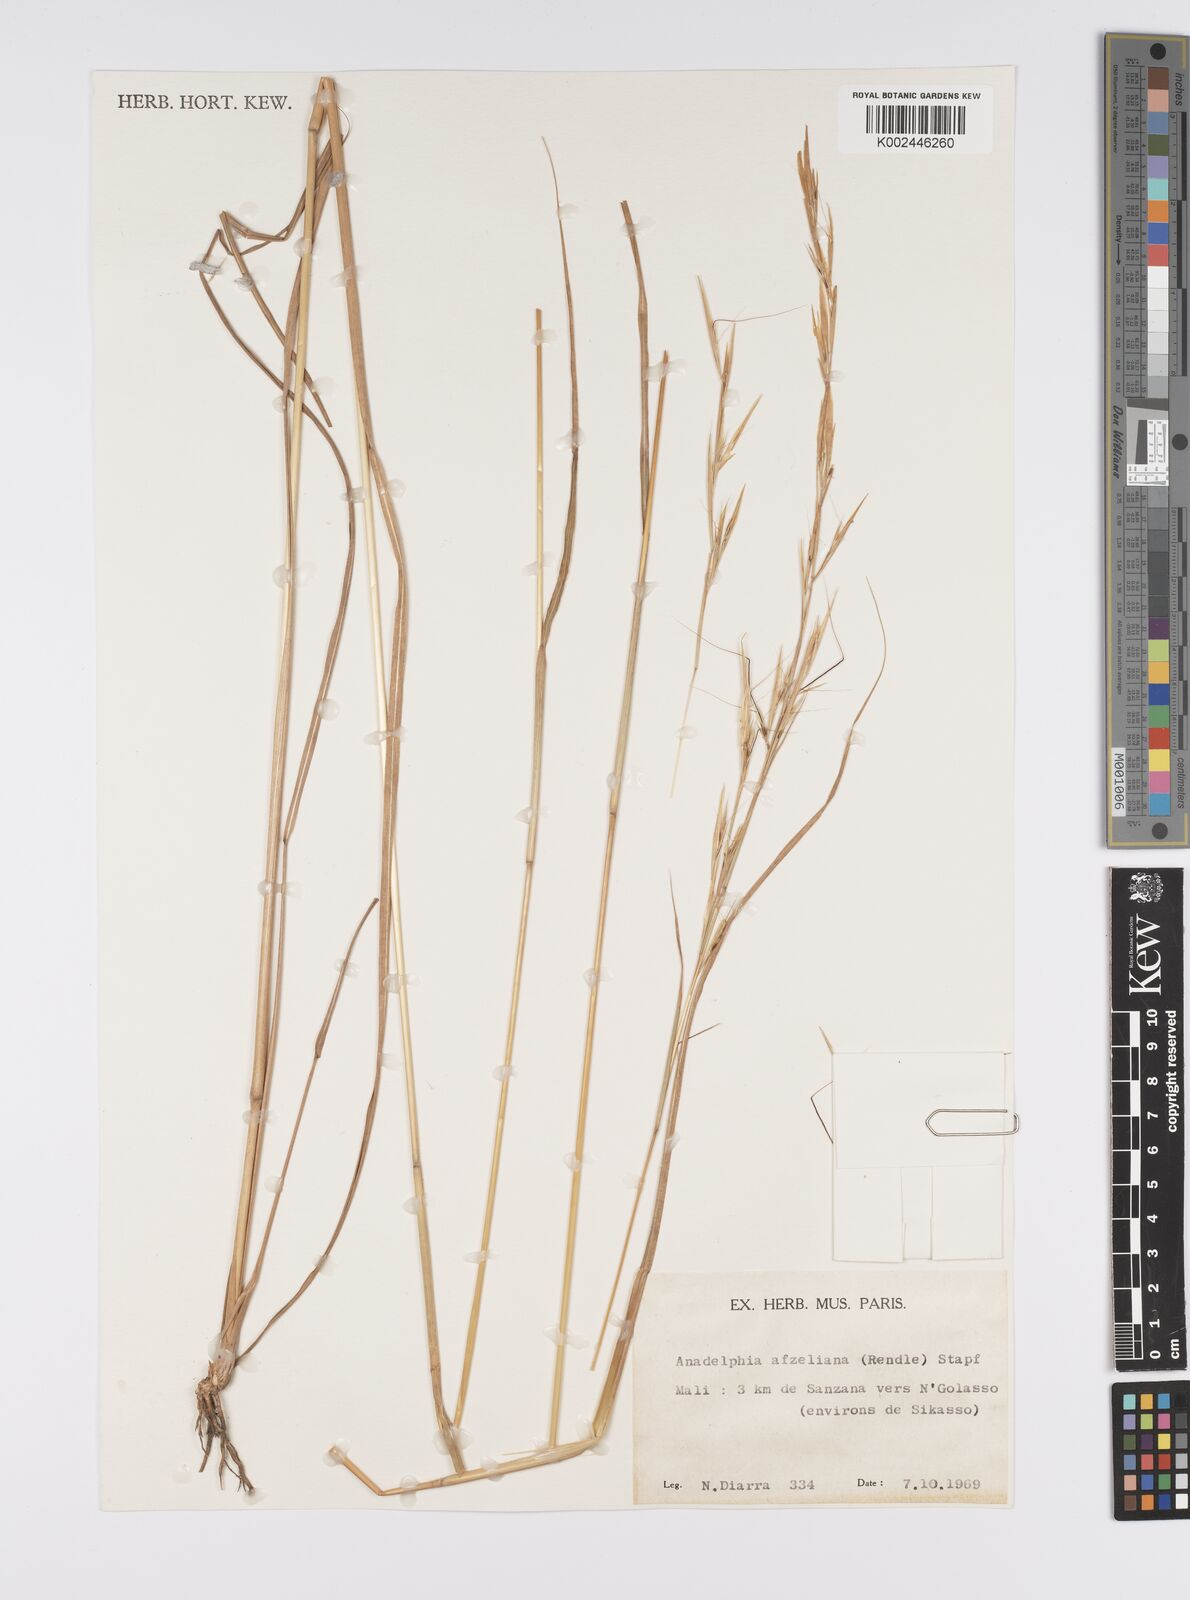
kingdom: Plantae
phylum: Tracheophyta
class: Liliopsida
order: Poales
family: Poaceae
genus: Anadelphia
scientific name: Anadelphia afzeliana
